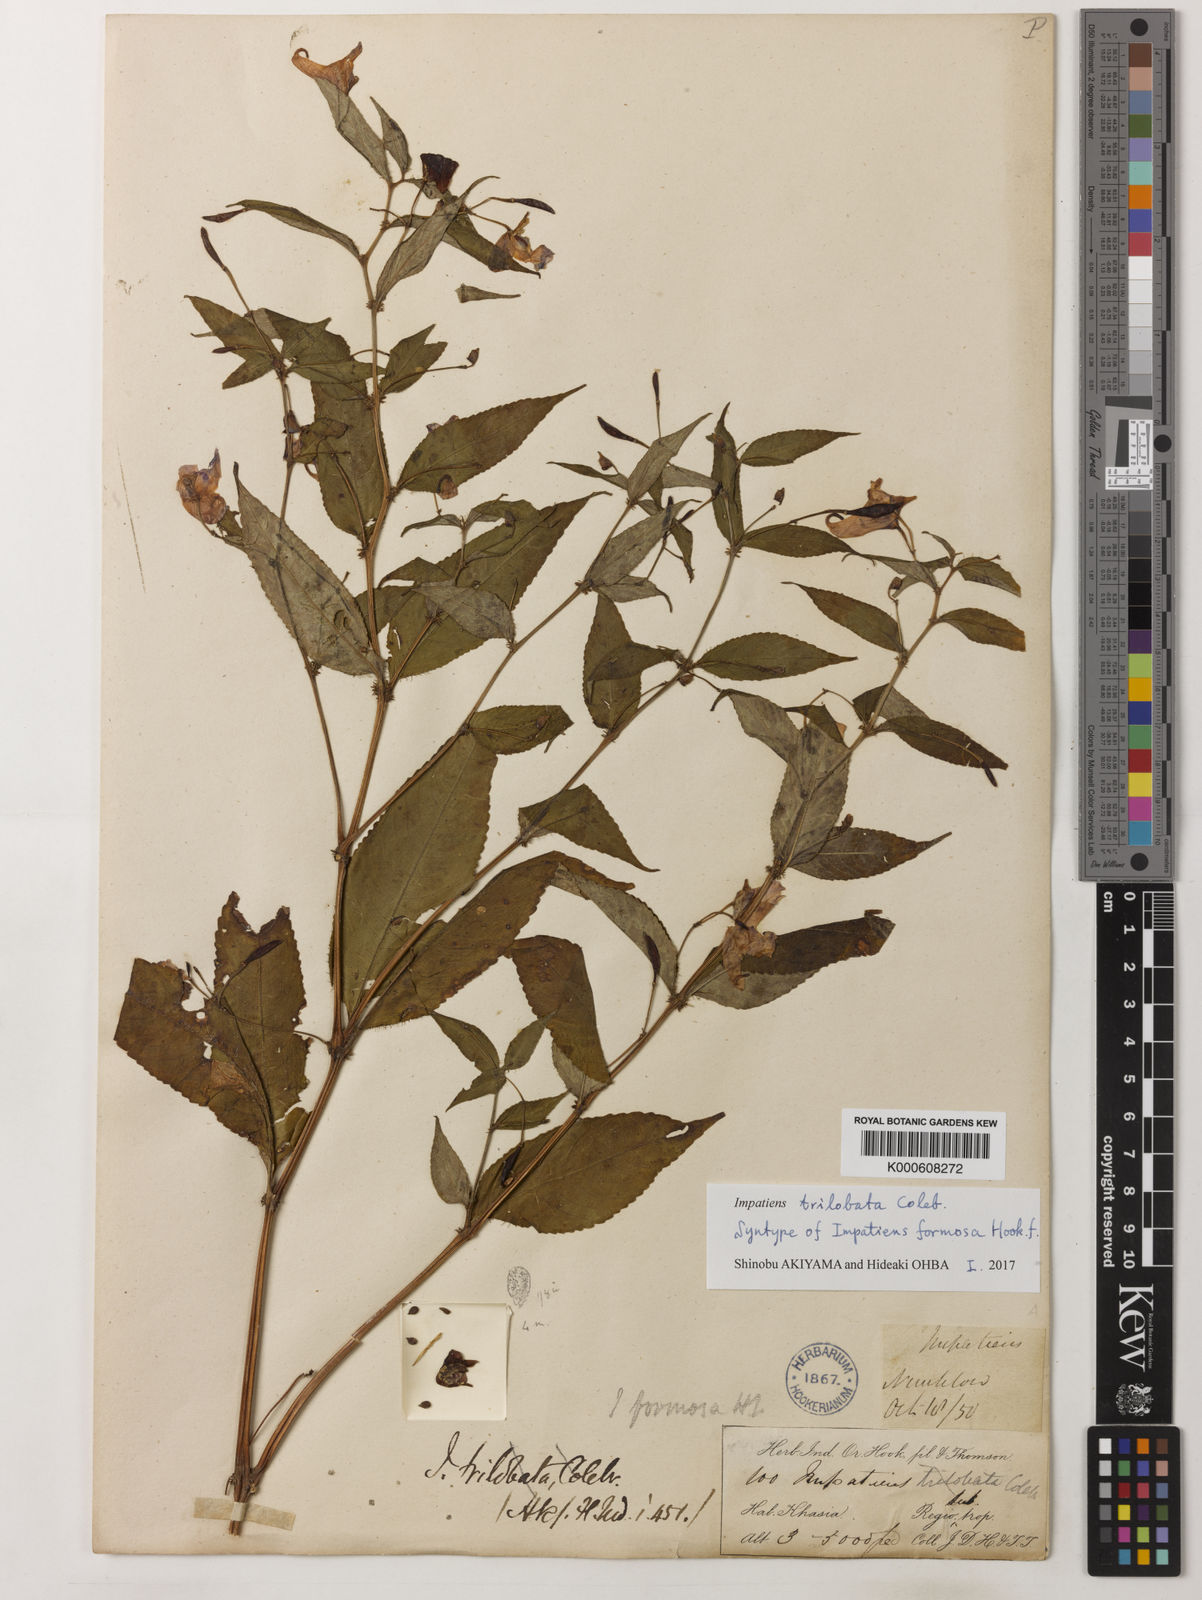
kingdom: Plantae
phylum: Tracheophyta
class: Magnoliopsida
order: Ericales
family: Balsaminaceae
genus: Impatiens
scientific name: Impatiens trilobata
